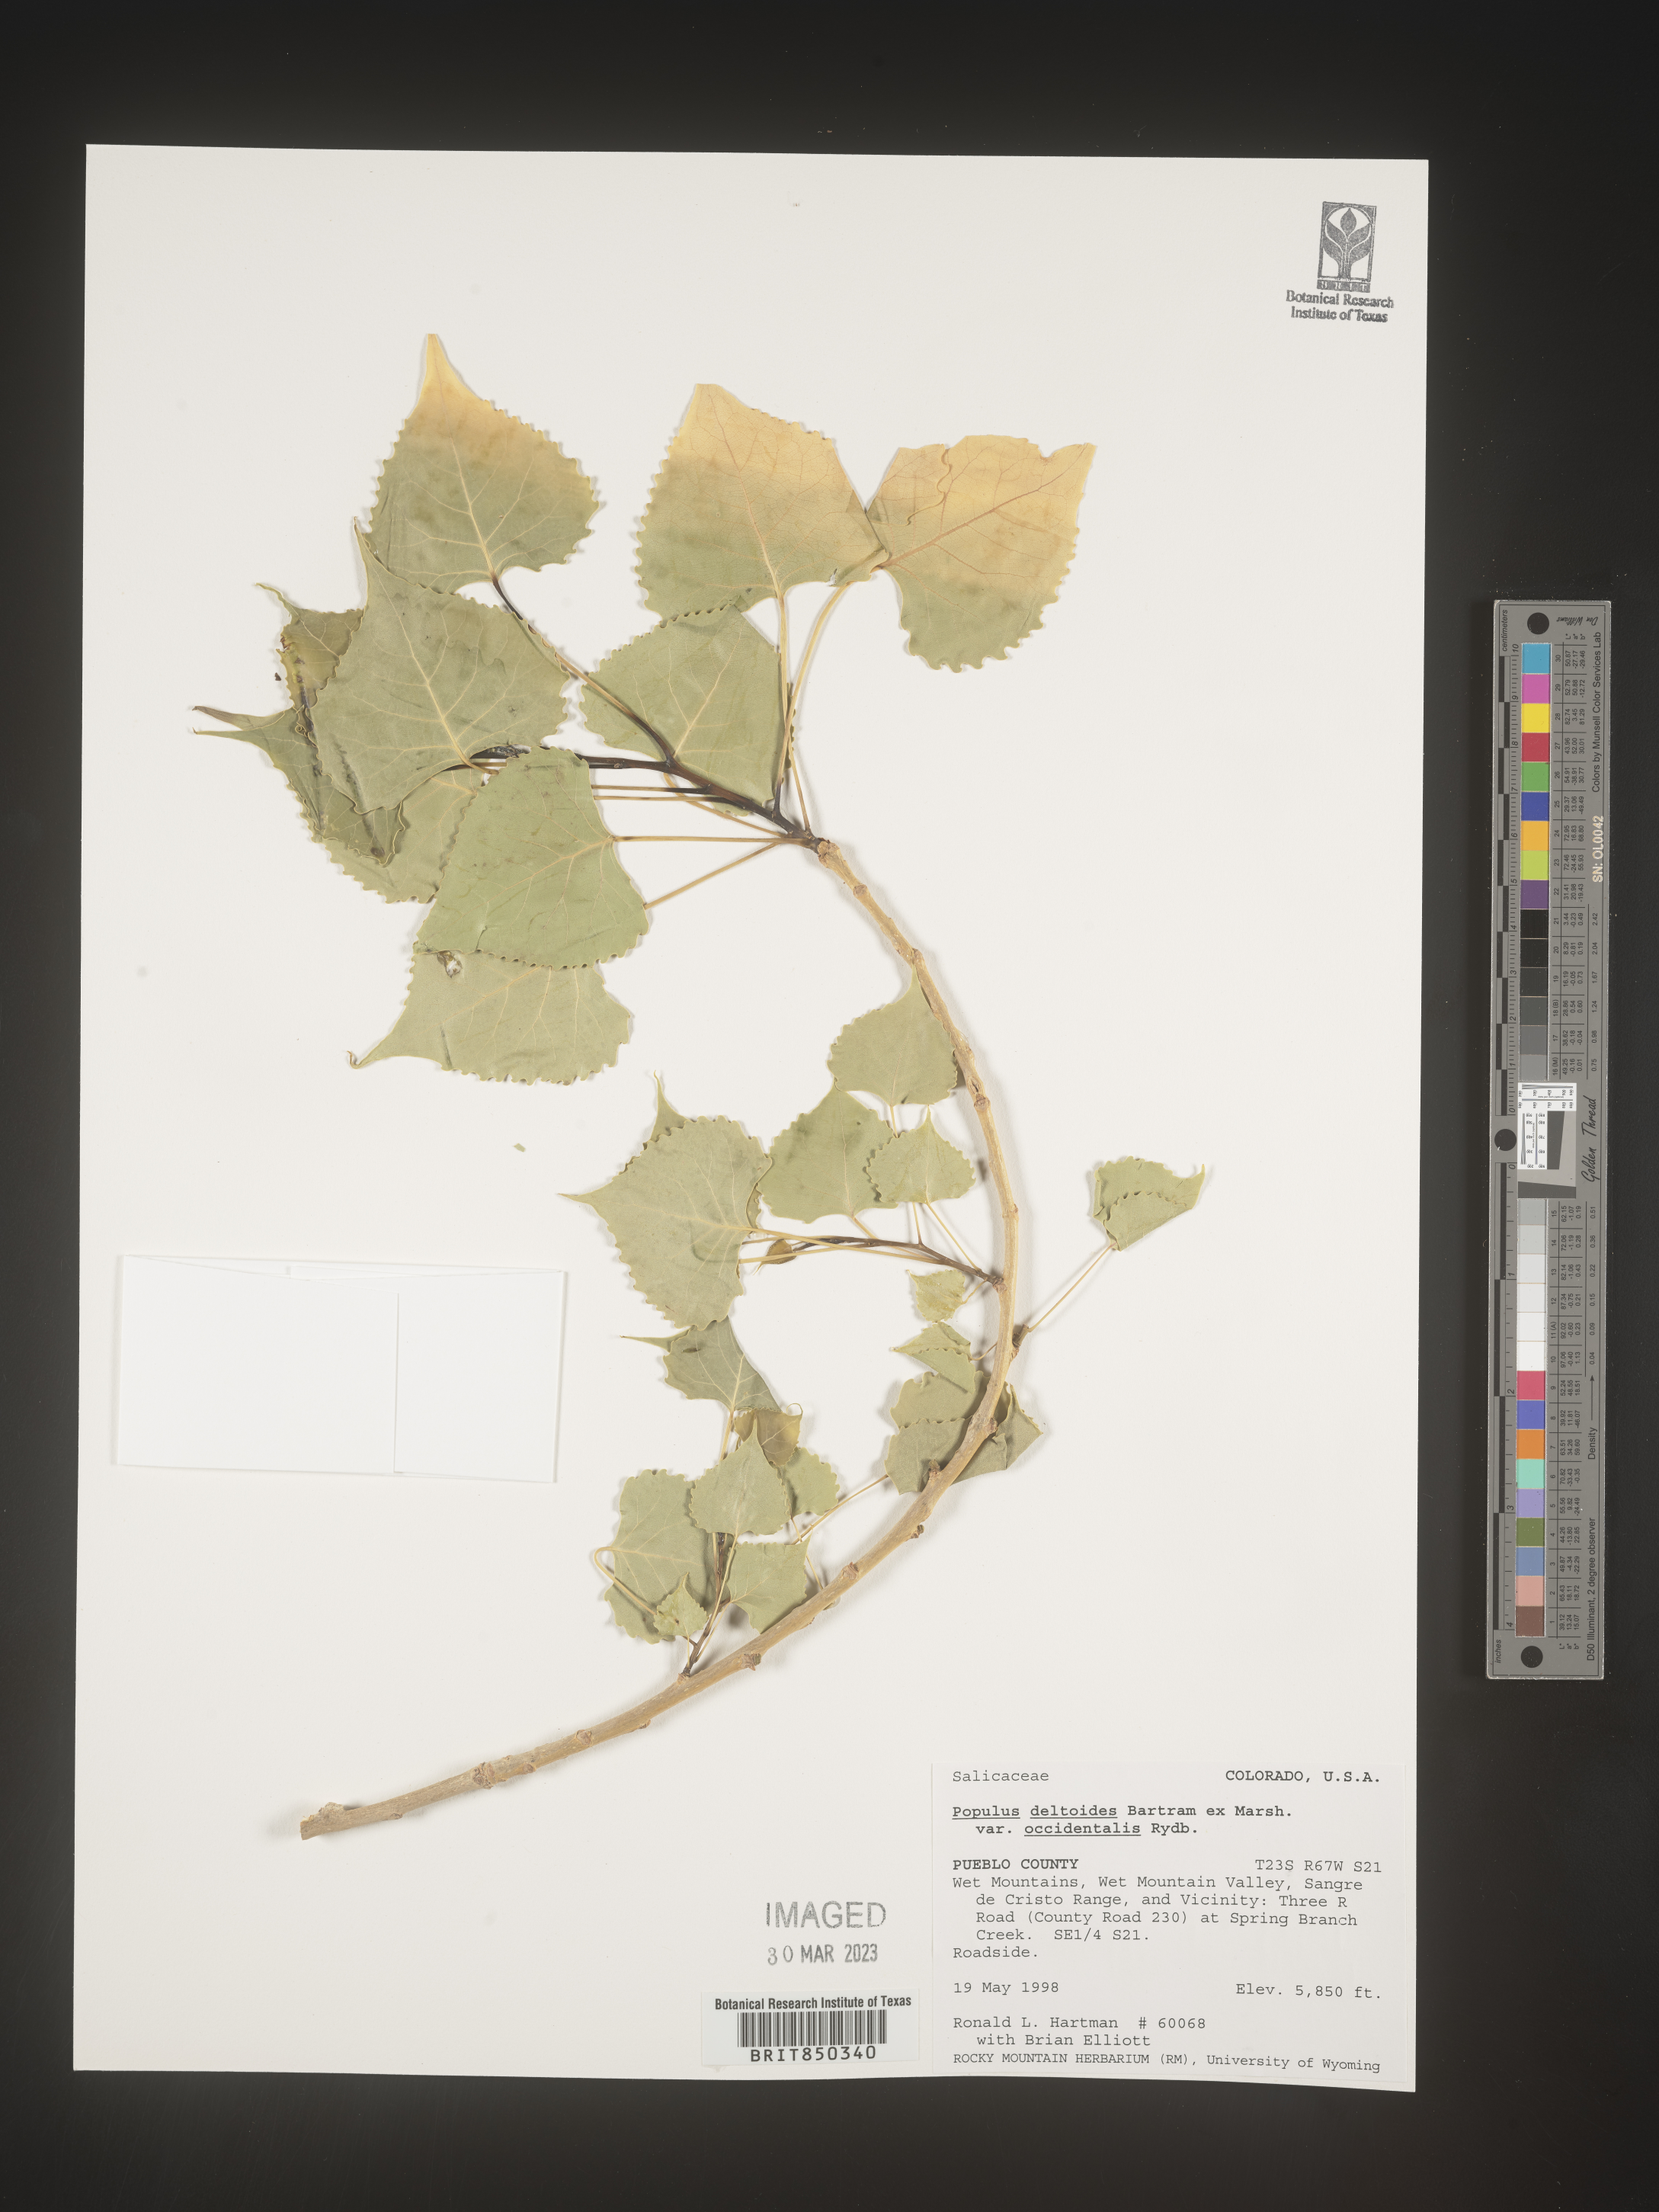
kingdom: Plantae
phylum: Tracheophyta
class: Magnoliopsida
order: Malpighiales
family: Salicaceae
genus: Populus
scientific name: Populus deltoides
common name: Eastern cottonwood
